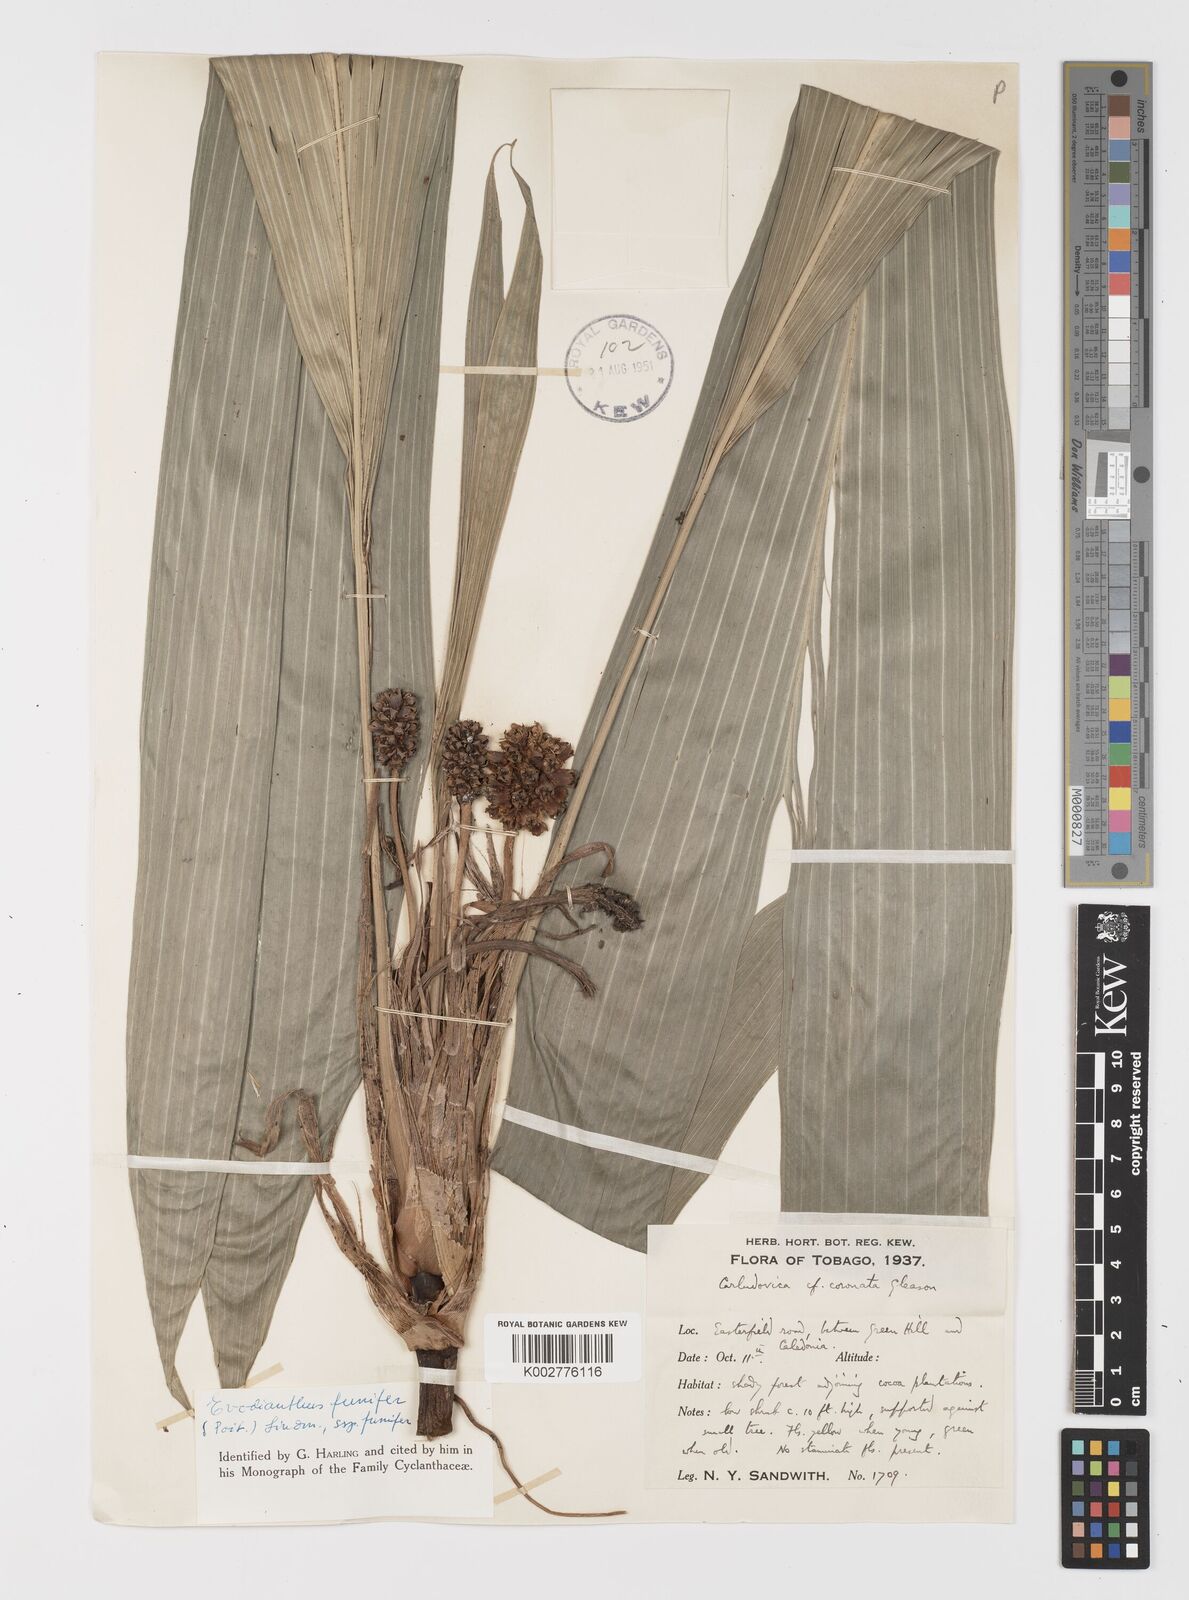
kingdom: Plantae
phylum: Tracheophyta
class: Liliopsida
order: Pandanales
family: Cyclanthaceae
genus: Evodianthus
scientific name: Evodianthus funifer
